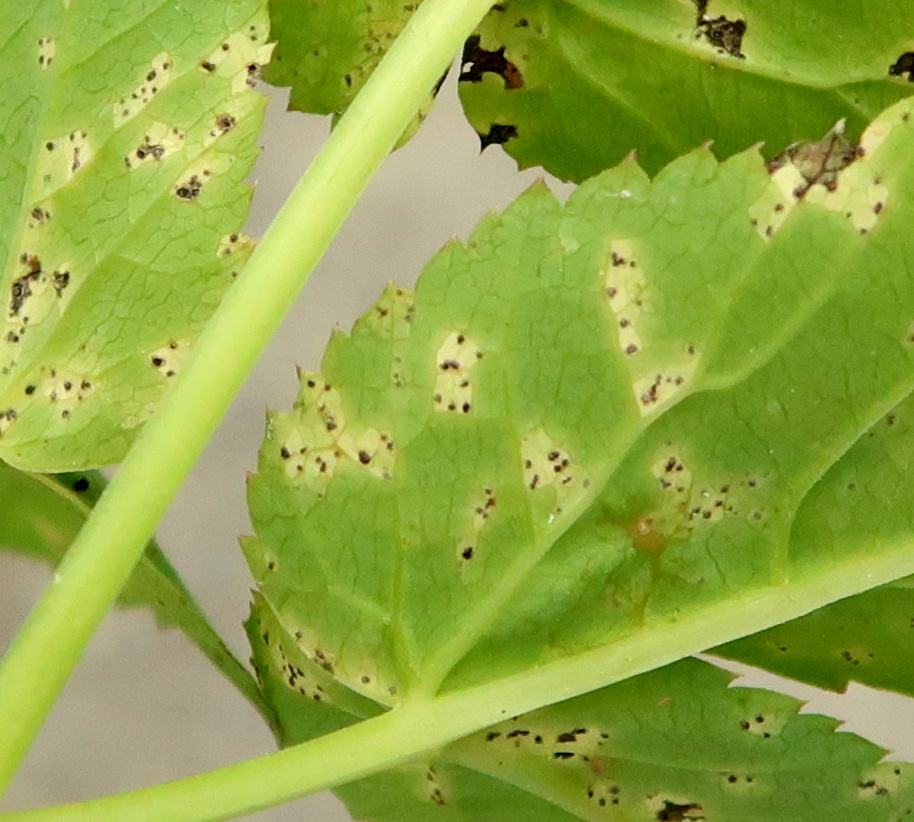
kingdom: Fungi
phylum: Basidiomycota
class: Pucciniomycetes
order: Pucciniales
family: Pucciniaceae
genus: Puccinia
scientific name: Puccinia
